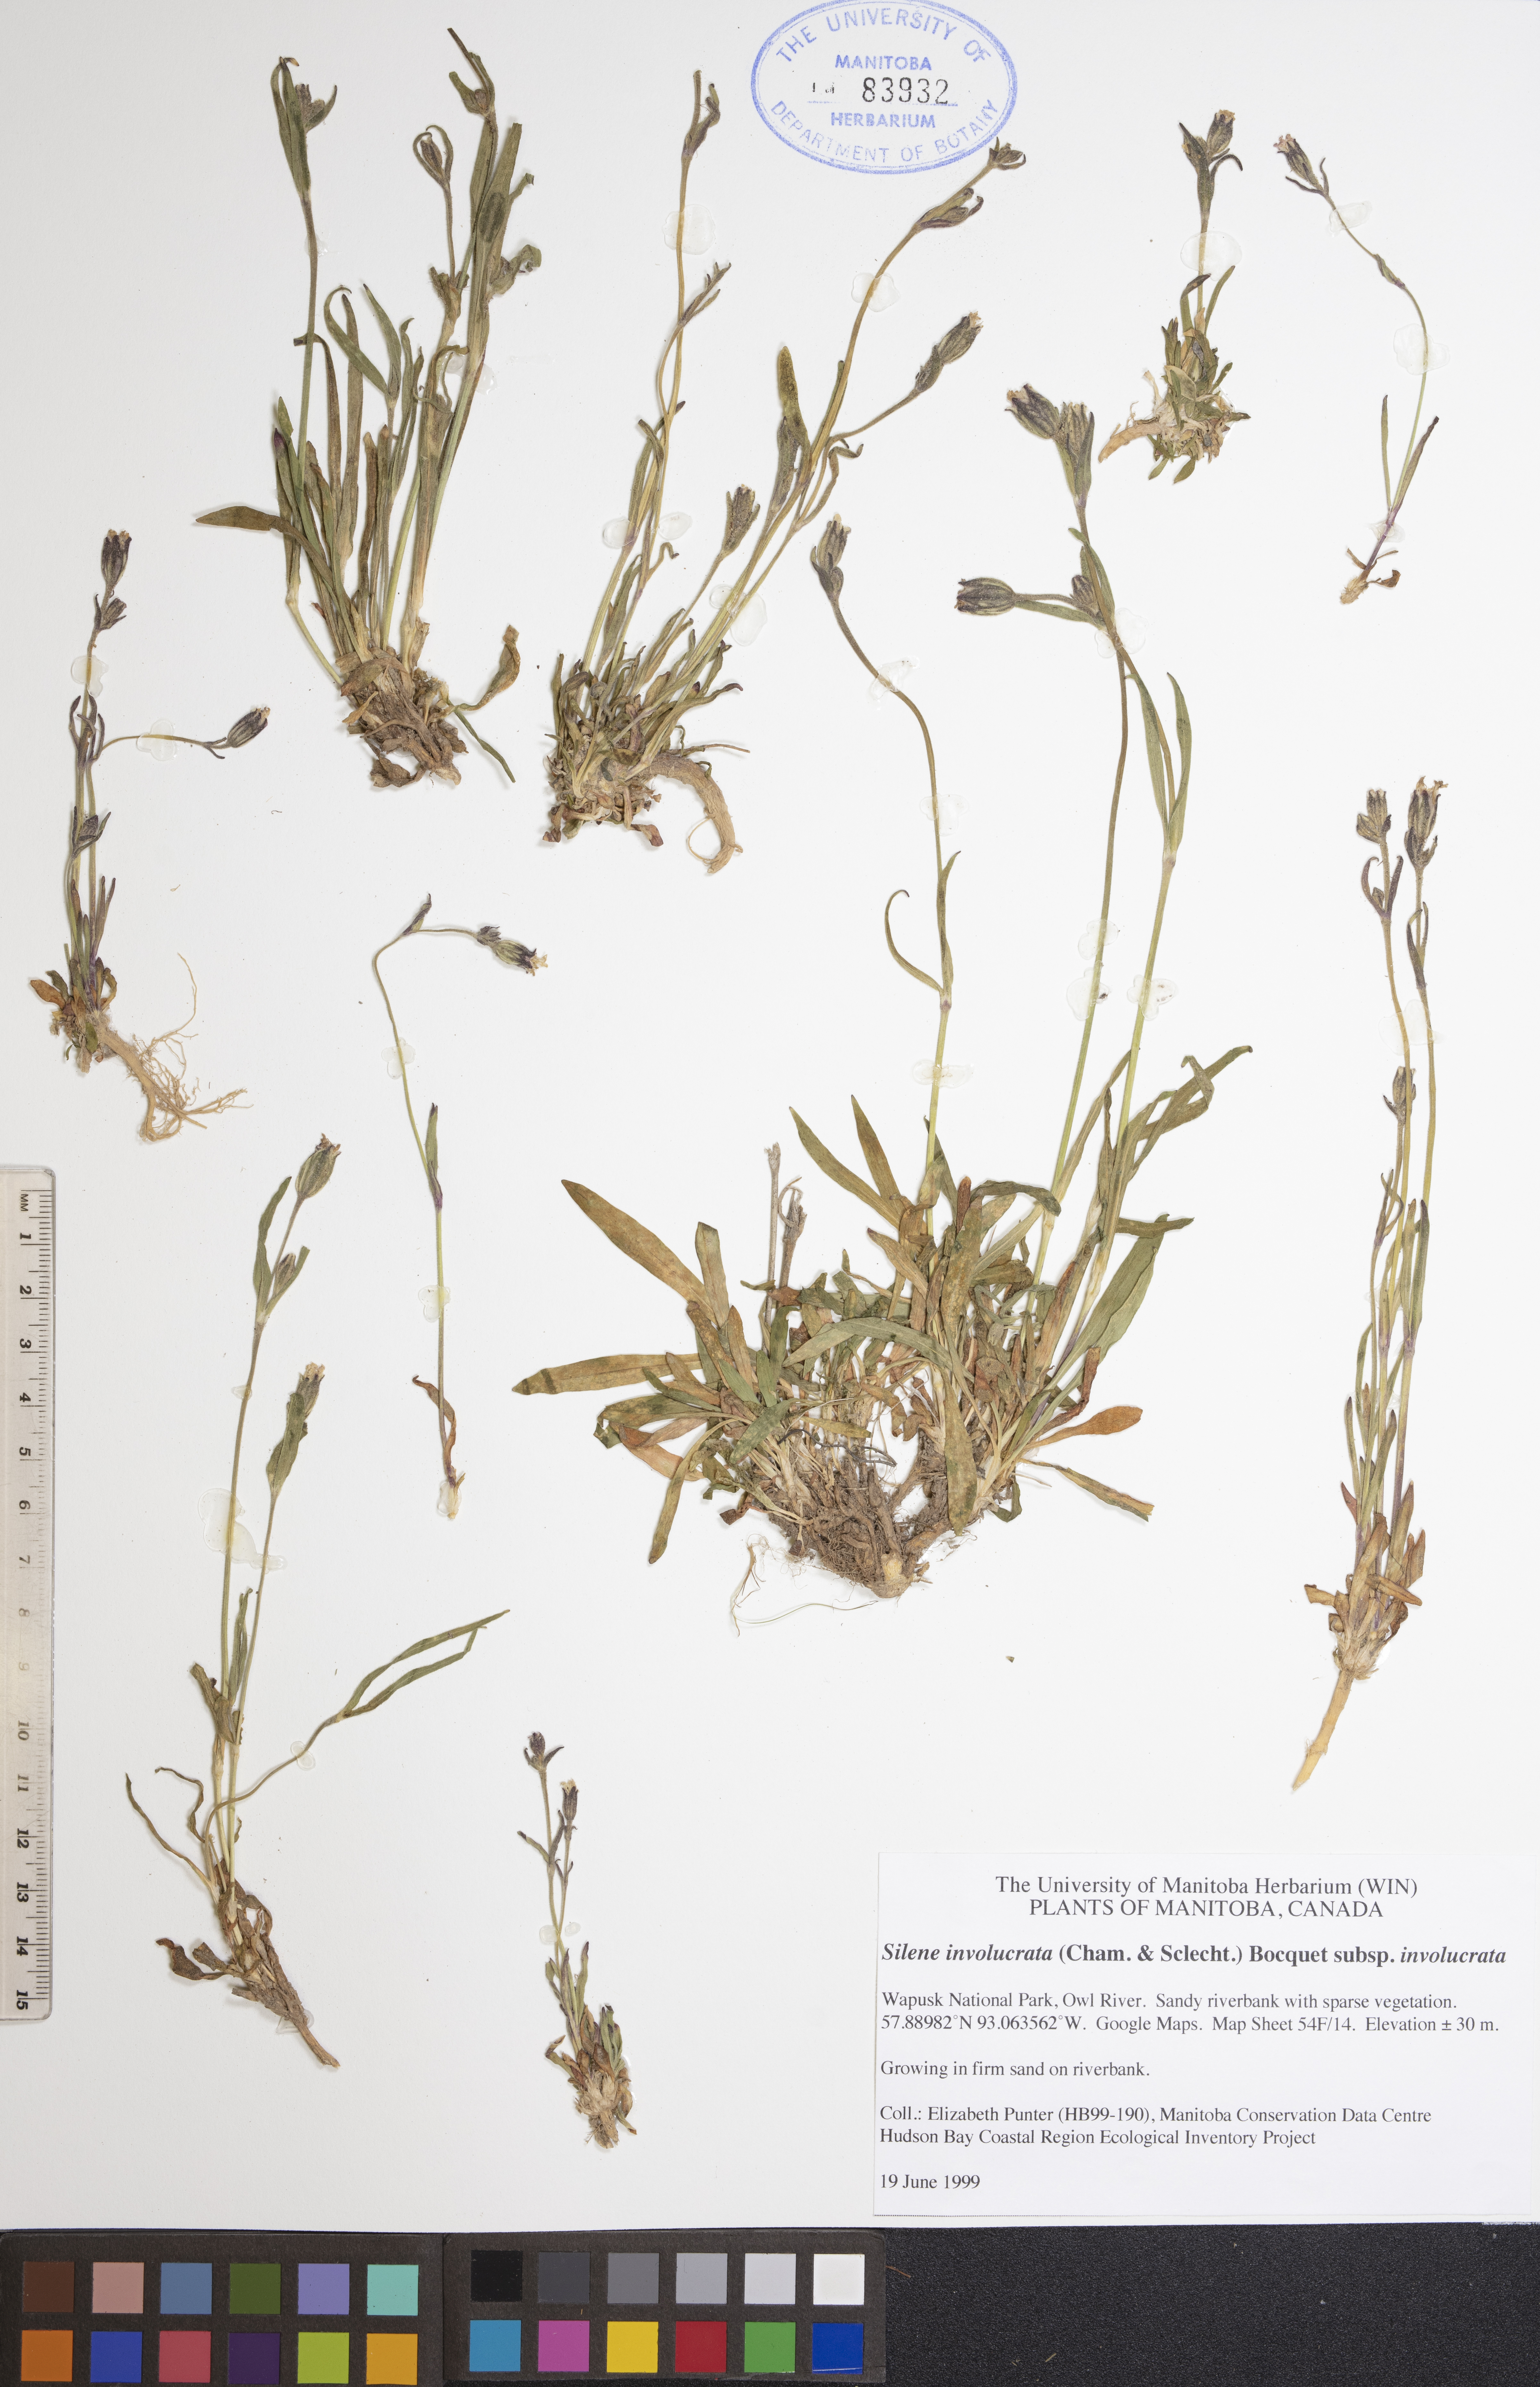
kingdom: Plantae
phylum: Tracheophyta
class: Magnoliopsida
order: Caryophyllales
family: Caryophyllaceae
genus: Silene
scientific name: Silene involucrata
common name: Greater arctic campion
